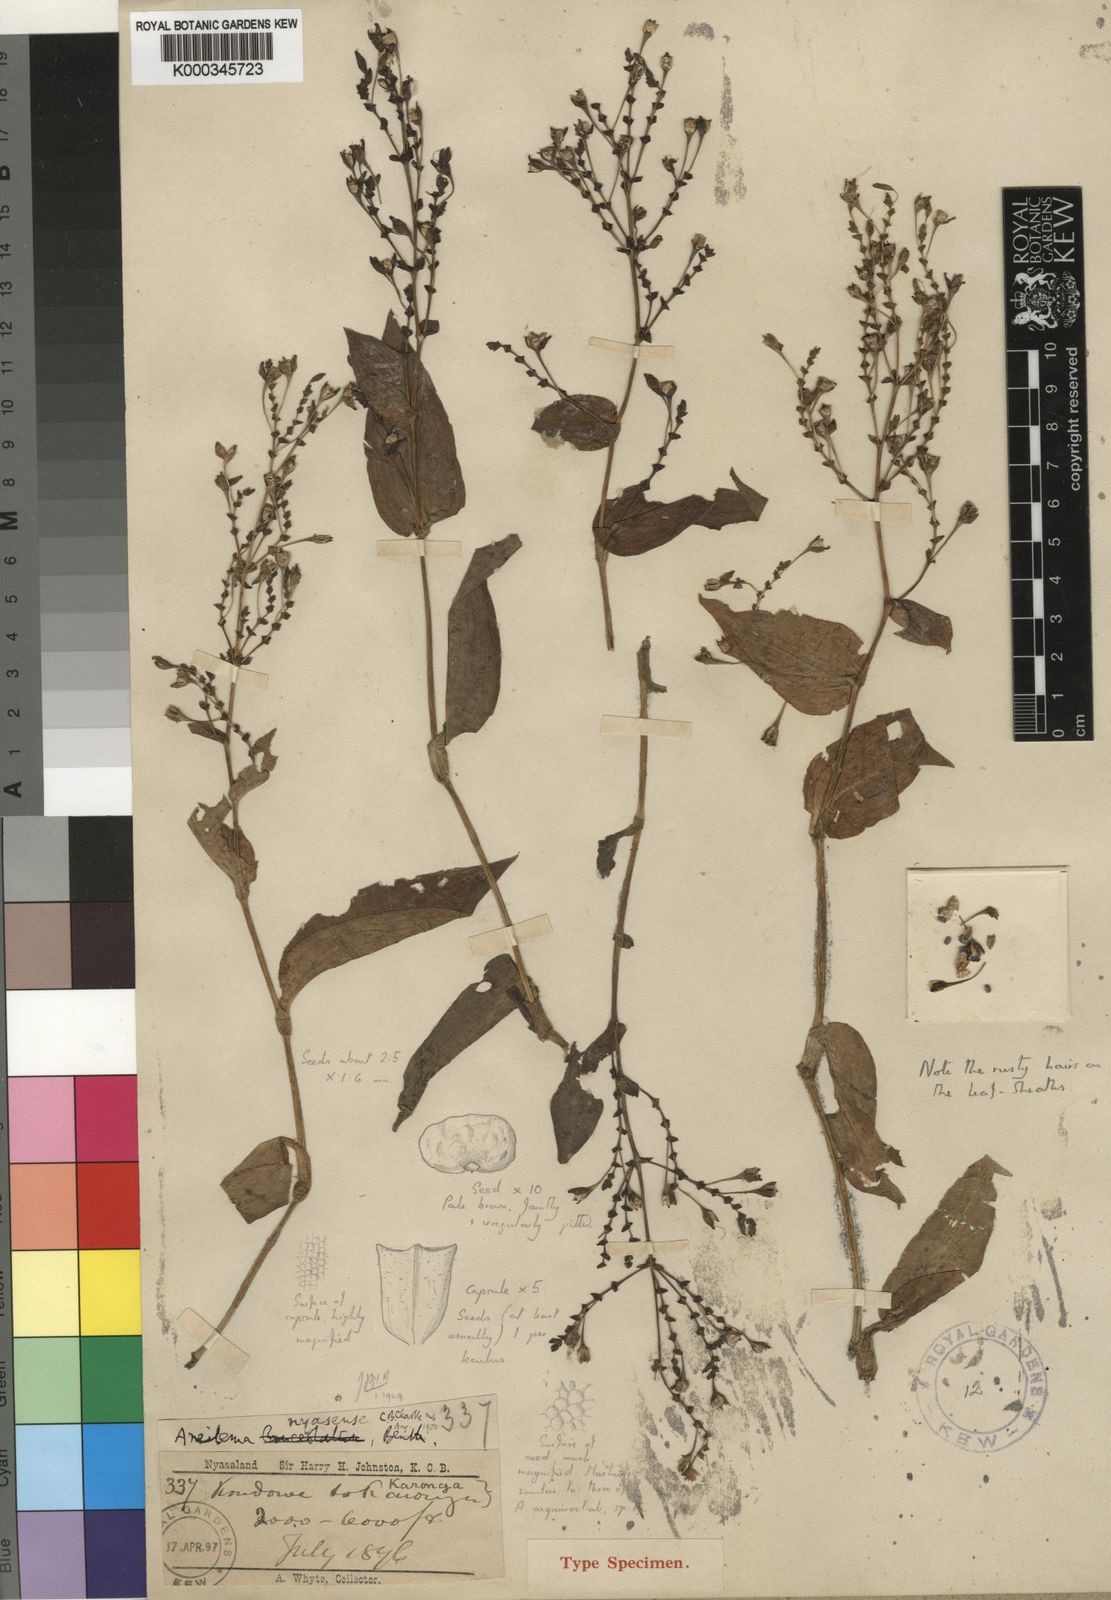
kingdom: Plantae
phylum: Tracheophyta
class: Liliopsida
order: Commelinales
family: Commelinaceae
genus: Aneilema
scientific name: Aneilema nyasense
